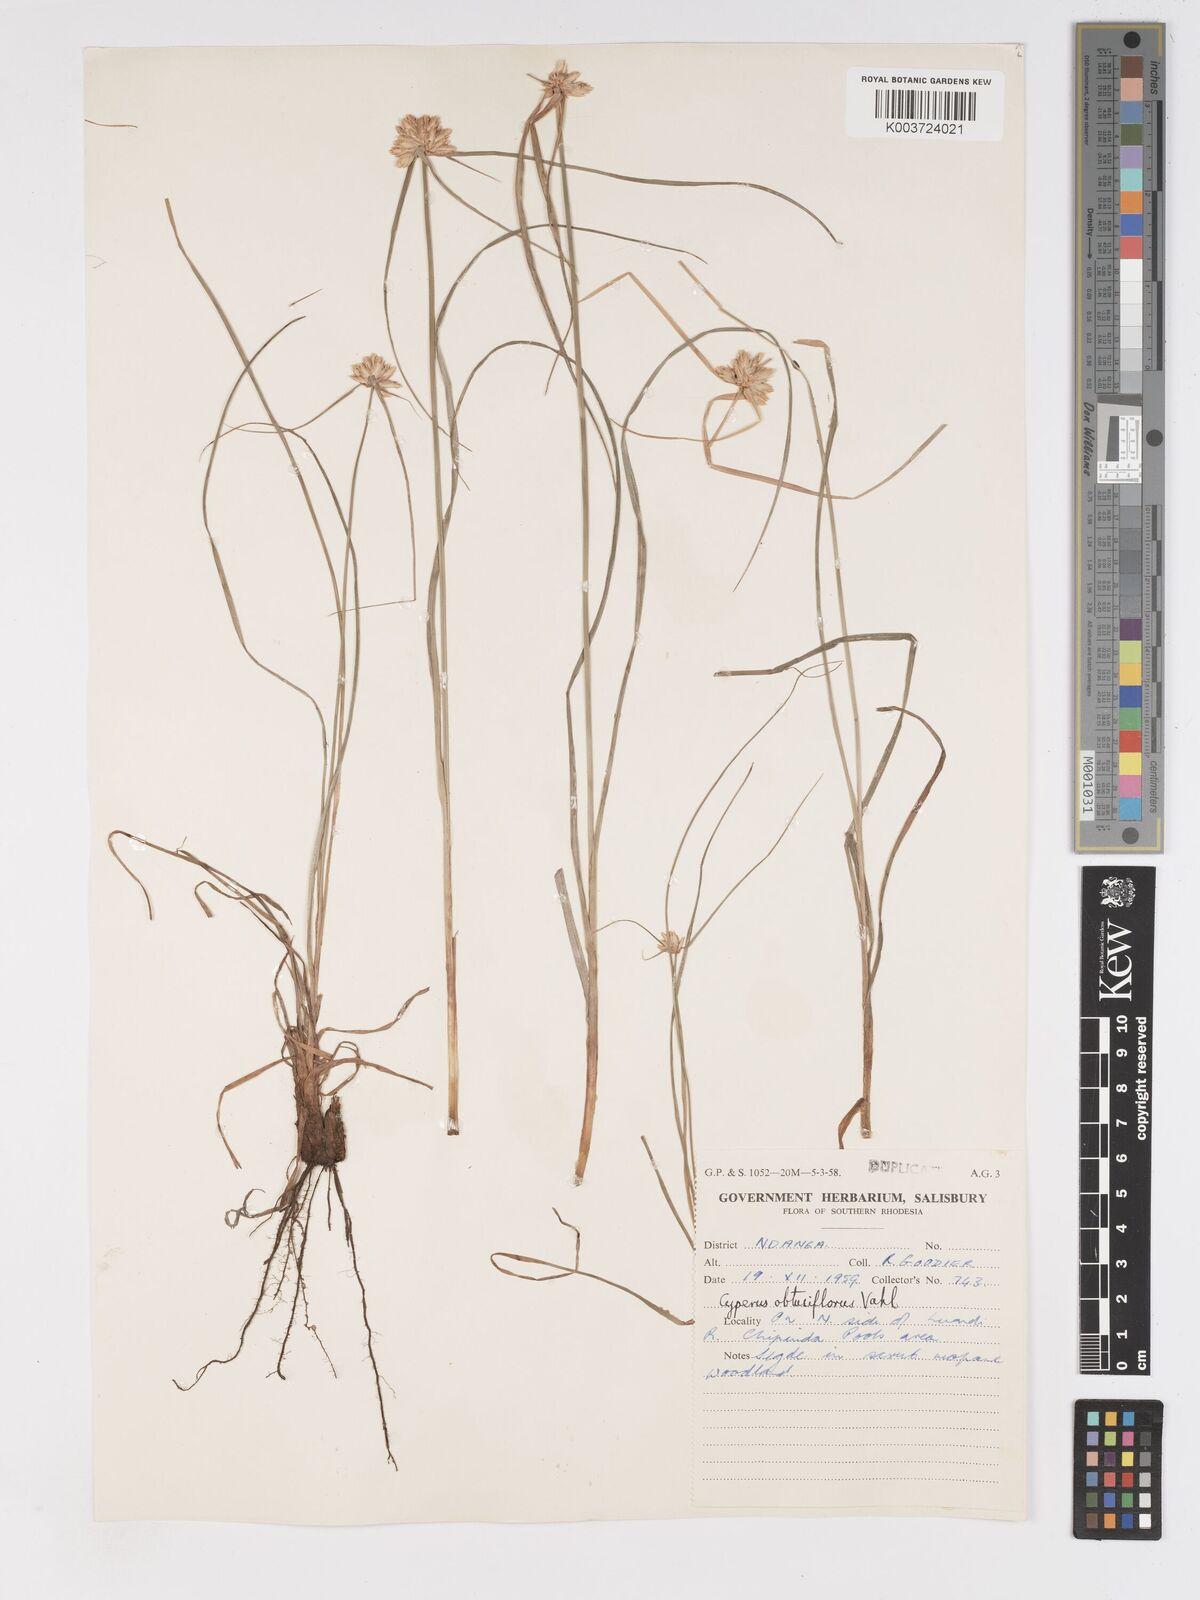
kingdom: Plantae
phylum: Tracheophyta
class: Liliopsida
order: Poales
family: Cyperaceae
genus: Cyperus
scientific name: Cyperus niveus
